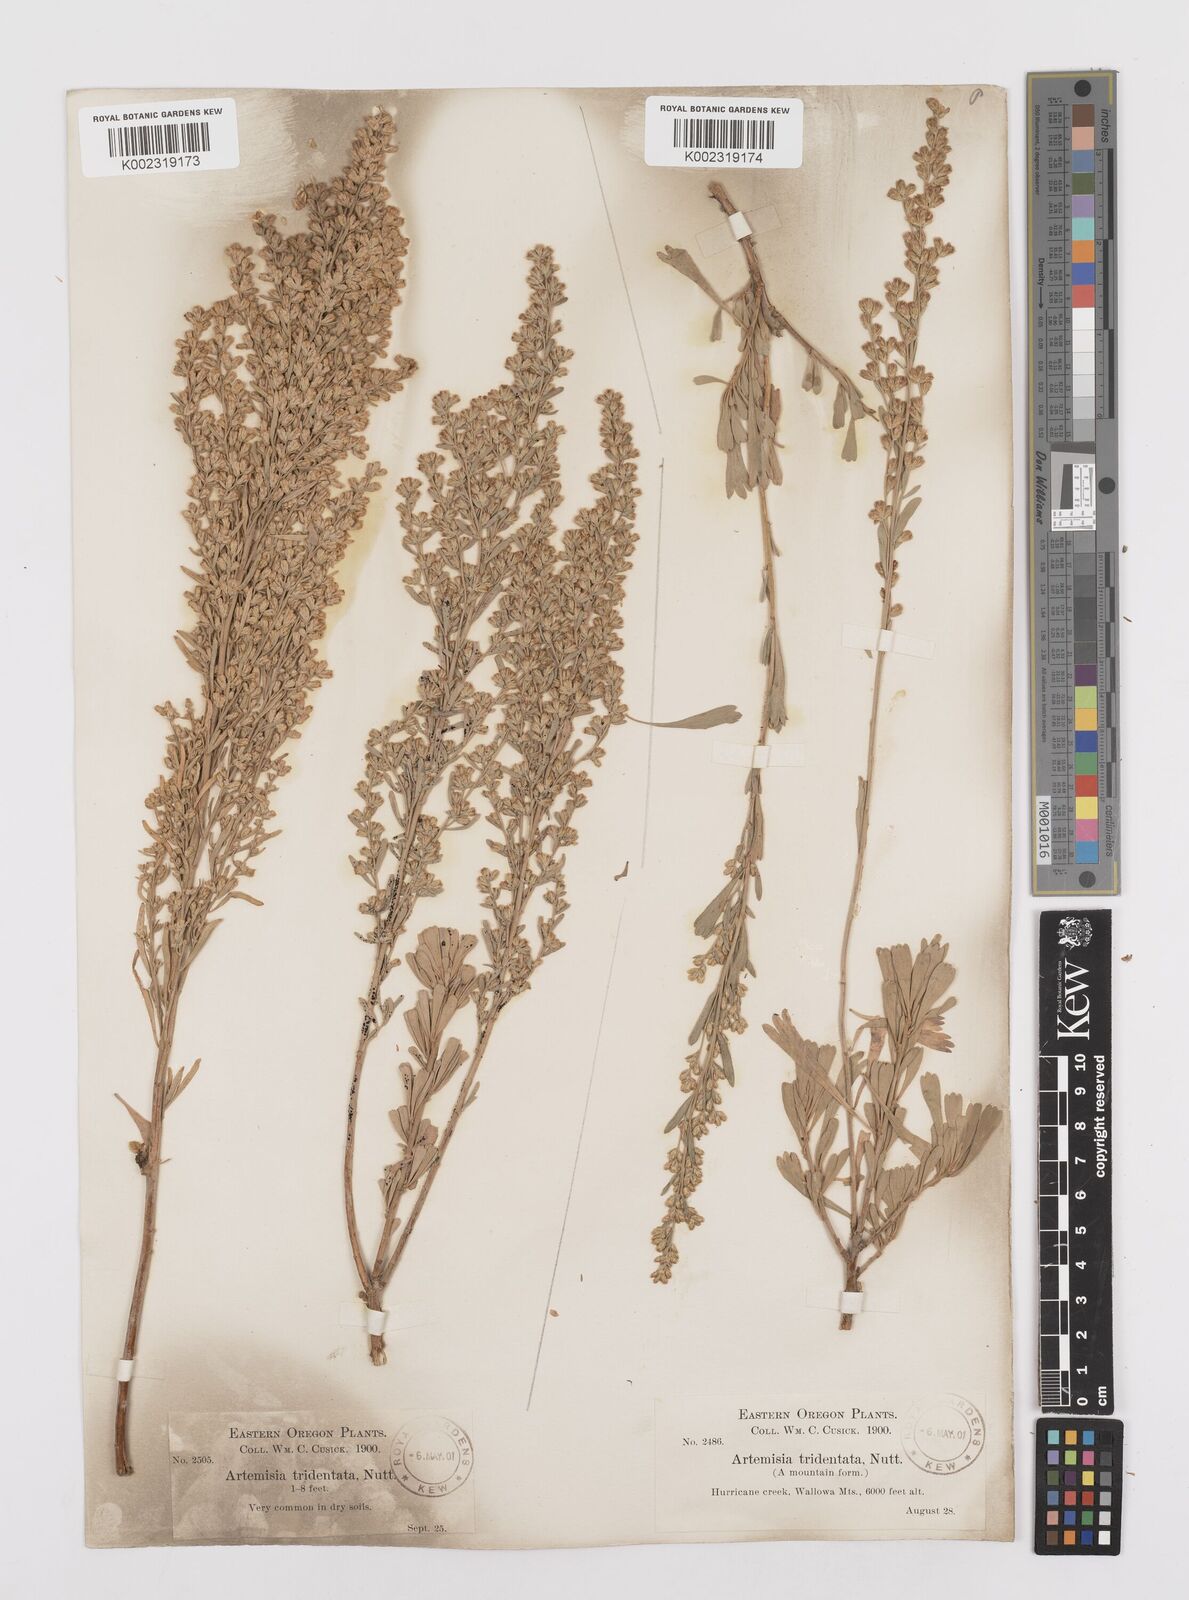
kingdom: Plantae
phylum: Tracheophyta
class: Magnoliopsida
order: Asterales
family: Asteraceae
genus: Artemisia
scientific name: Artemisia tridentata
